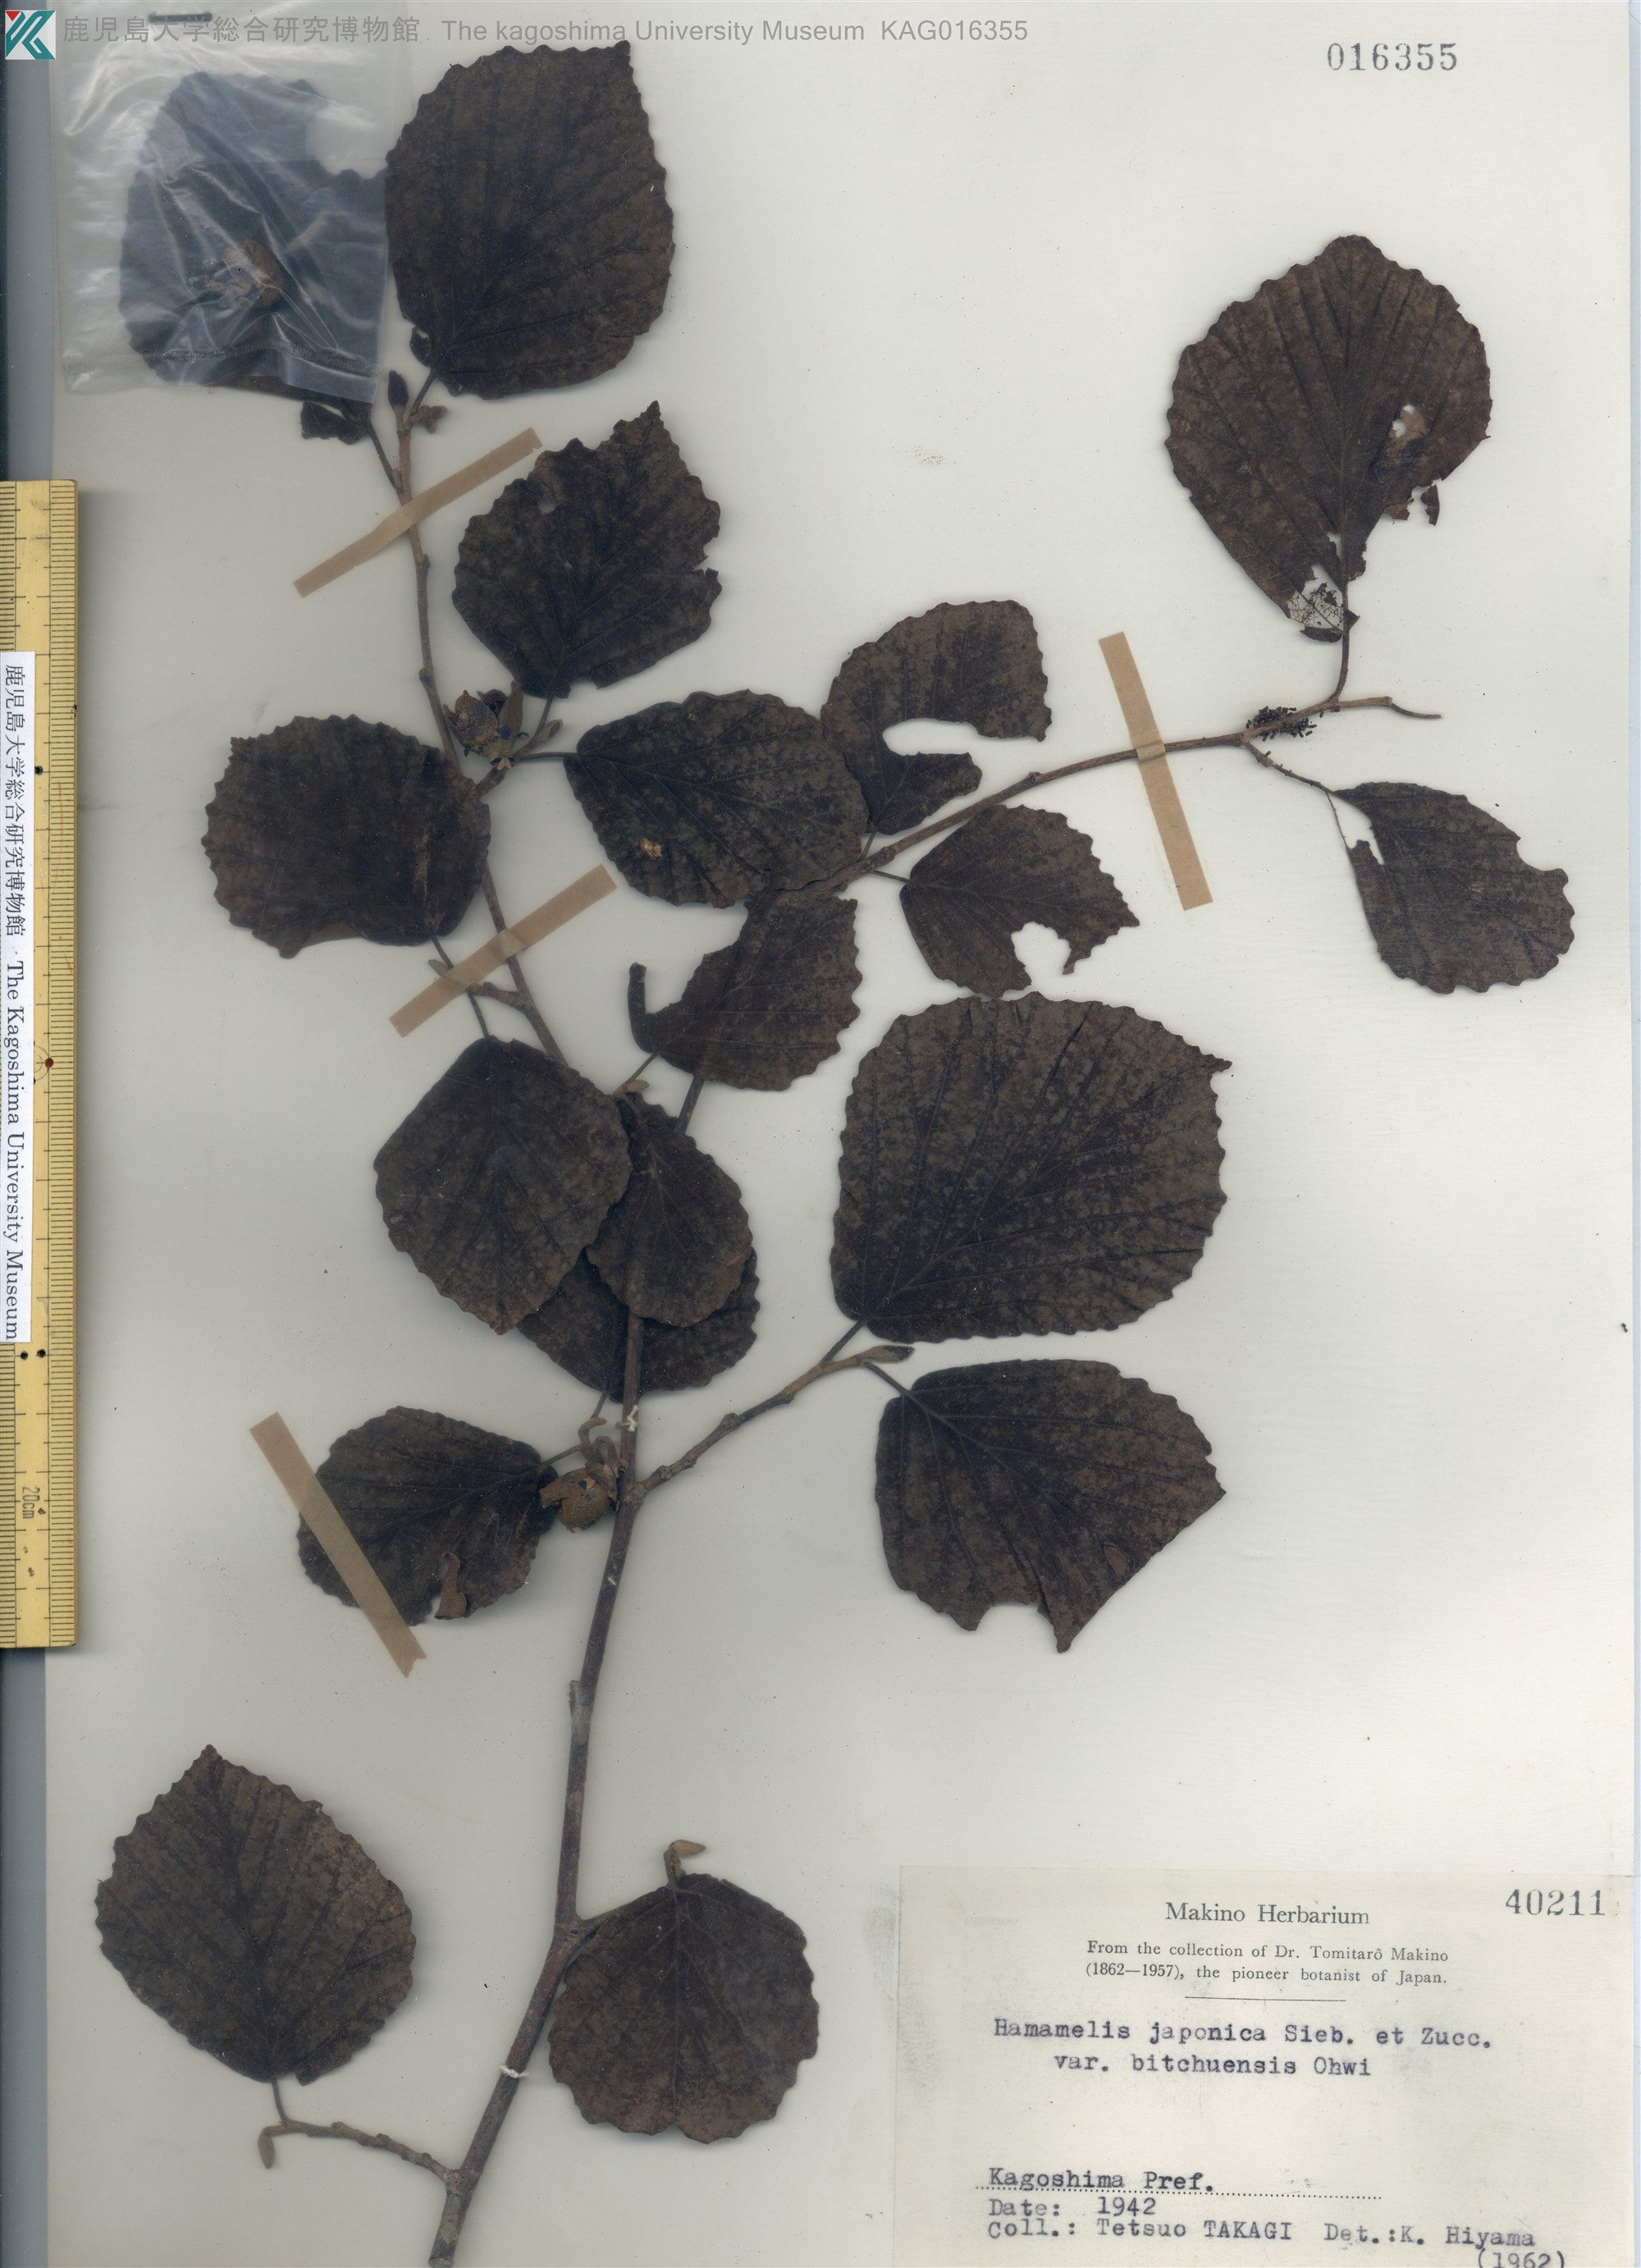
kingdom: Plantae
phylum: Tracheophyta
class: Magnoliopsida
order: Saxifragales
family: Hamamelidaceae
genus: Hamamelis
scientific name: Hamamelis japonica
